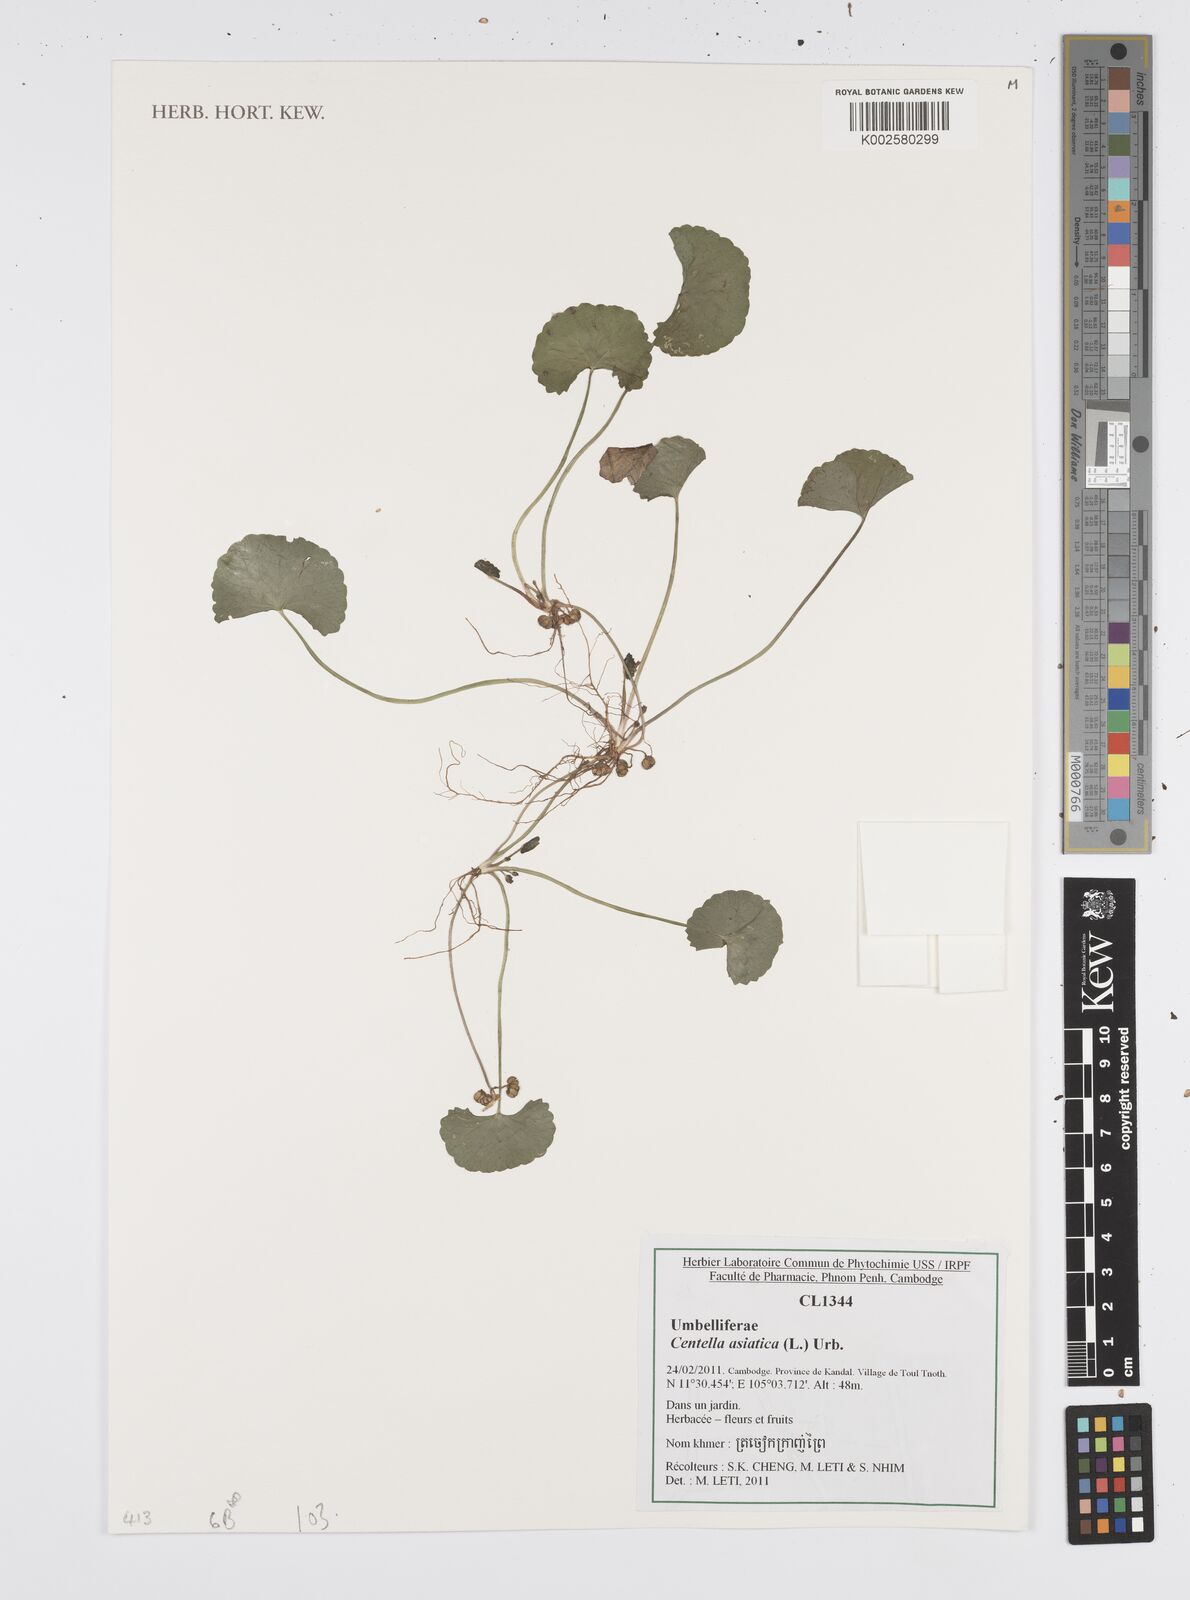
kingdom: Plantae
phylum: Tracheophyta
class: Magnoliopsida
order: Apiales
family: Apiaceae
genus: Centella
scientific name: Centella asiatica
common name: Spadeleaf
